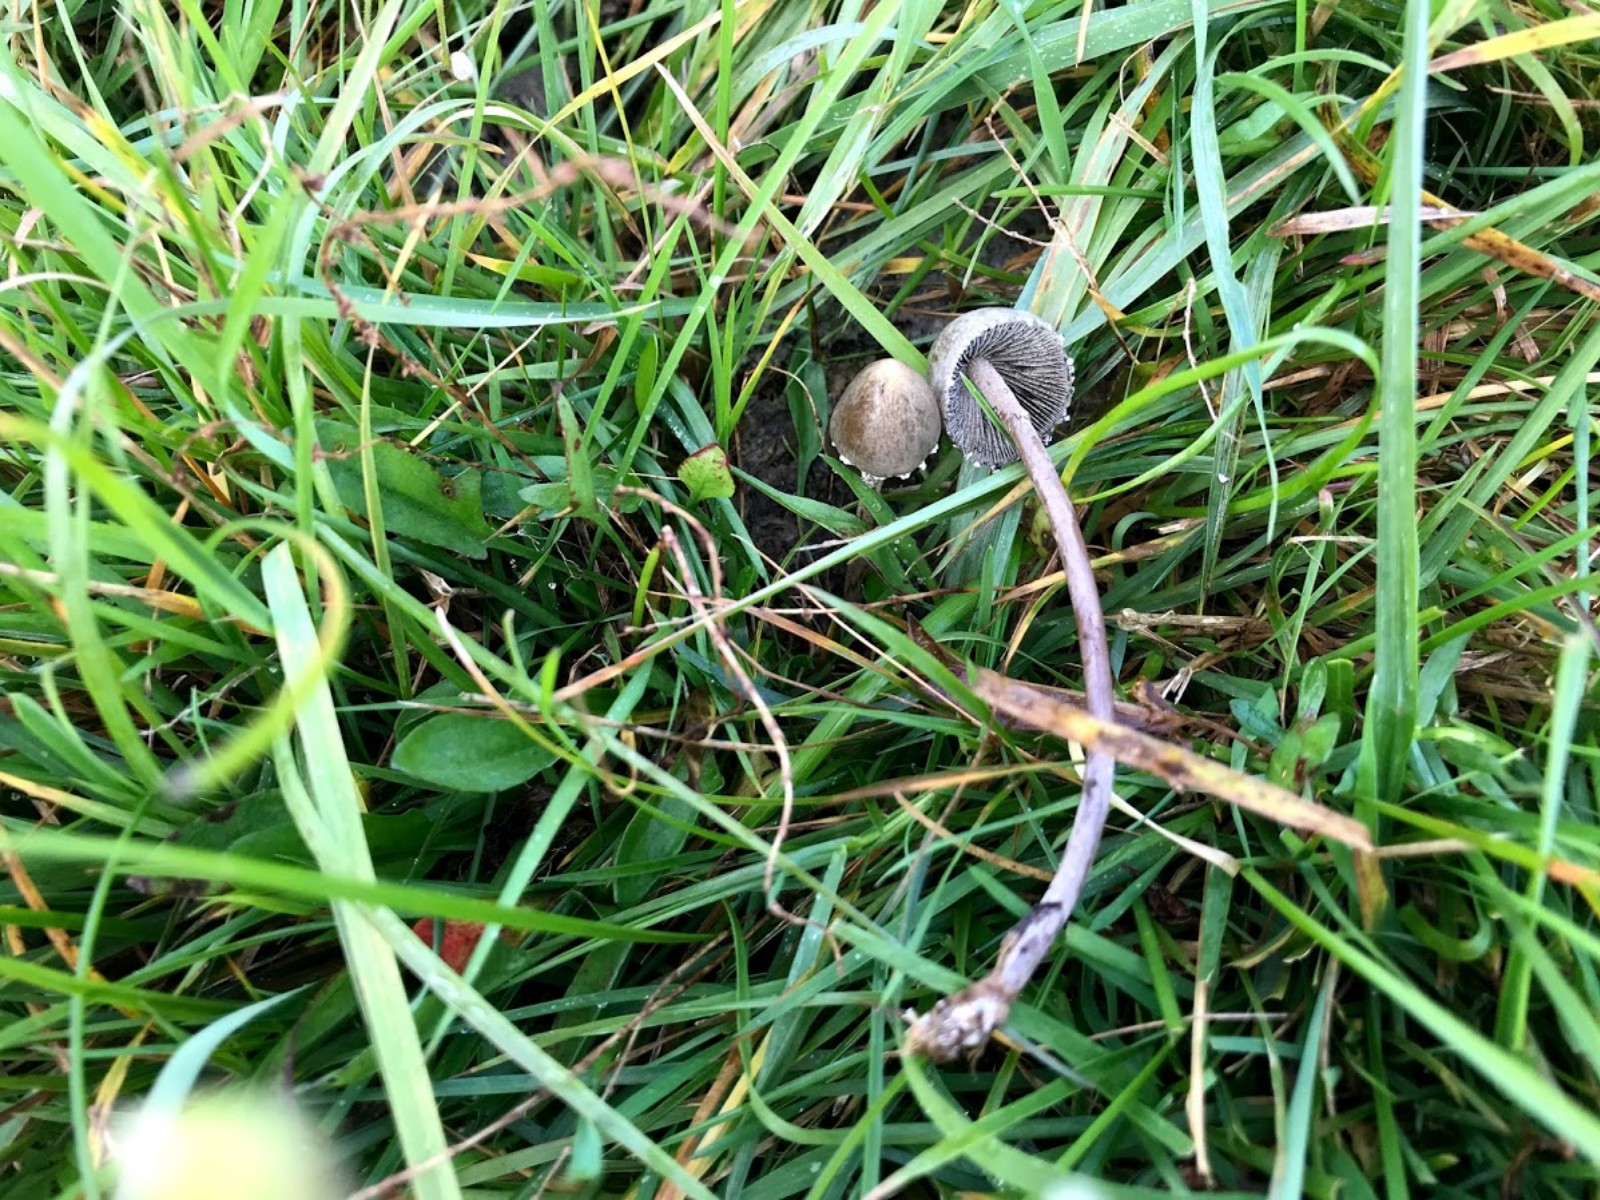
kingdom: Fungi
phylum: Basidiomycota
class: Agaricomycetes
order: Agaricales
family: Bolbitiaceae
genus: Panaeolus
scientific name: Panaeolus papilionaceus
